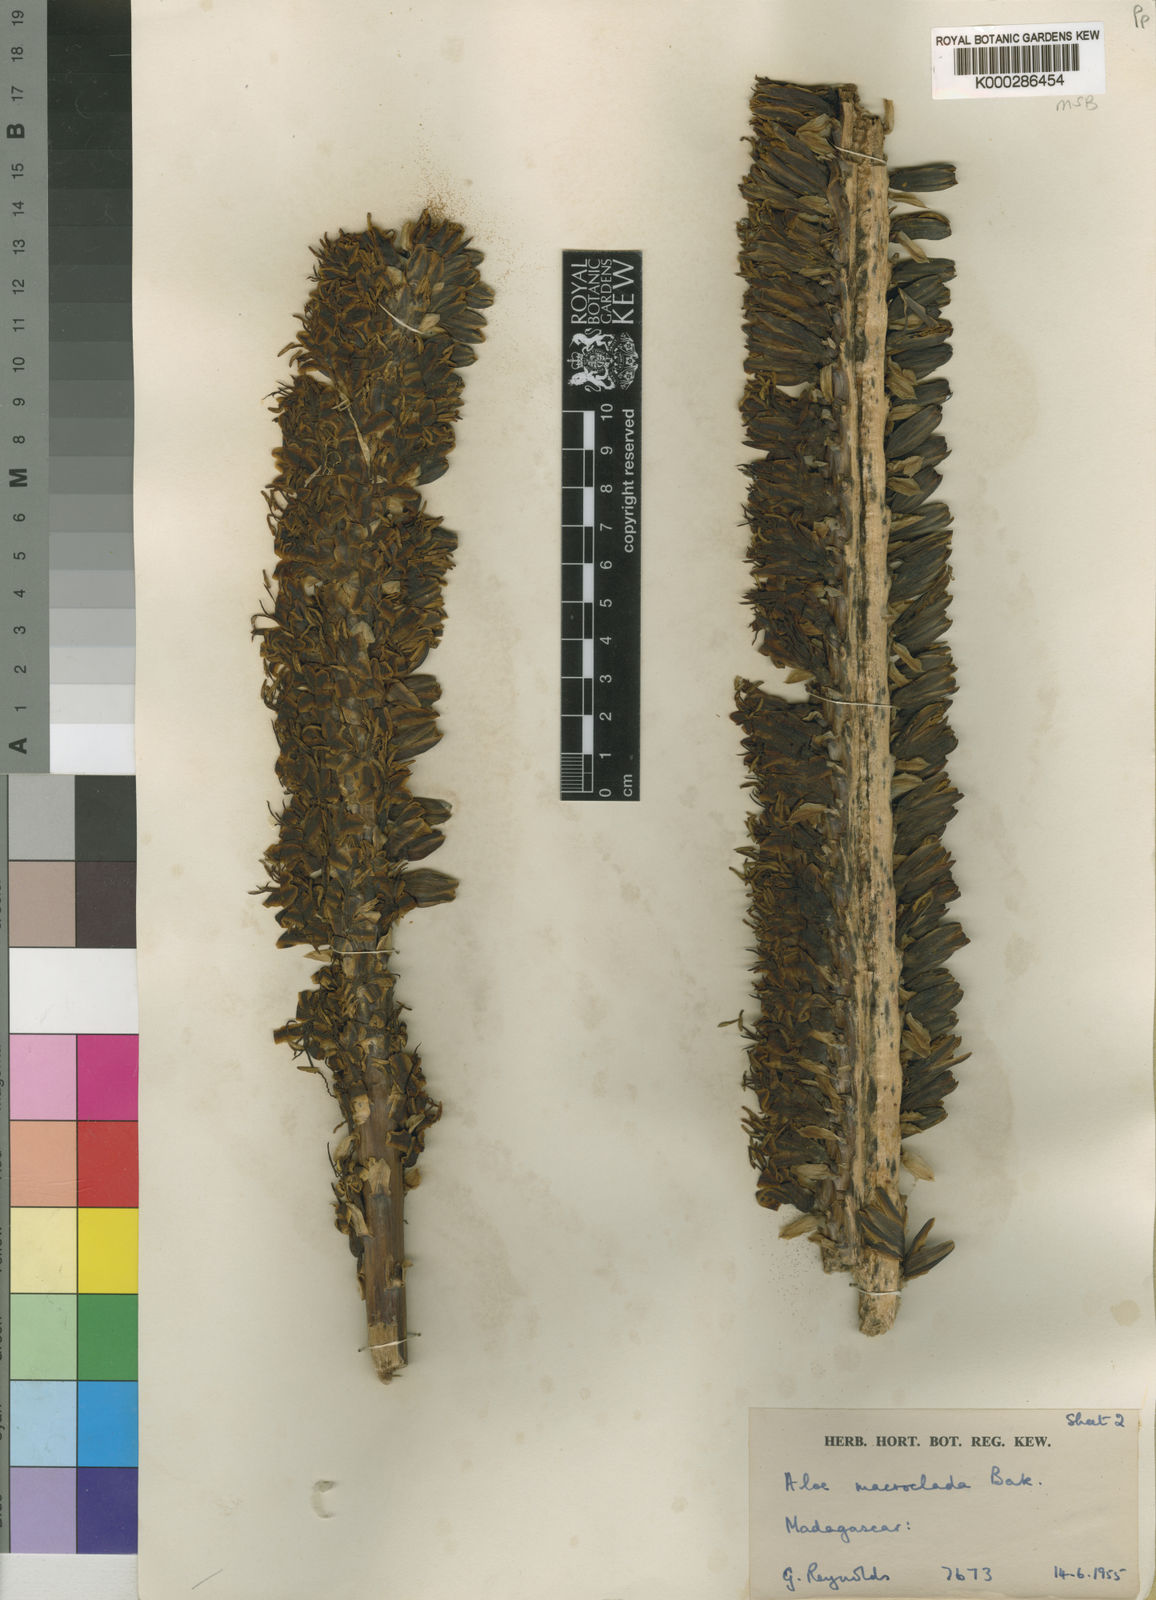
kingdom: Plantae
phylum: Tracheophyta
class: Liliopsida
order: Asparagales
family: Asphodelaceae
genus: Aloe
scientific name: Aloe macroclada
